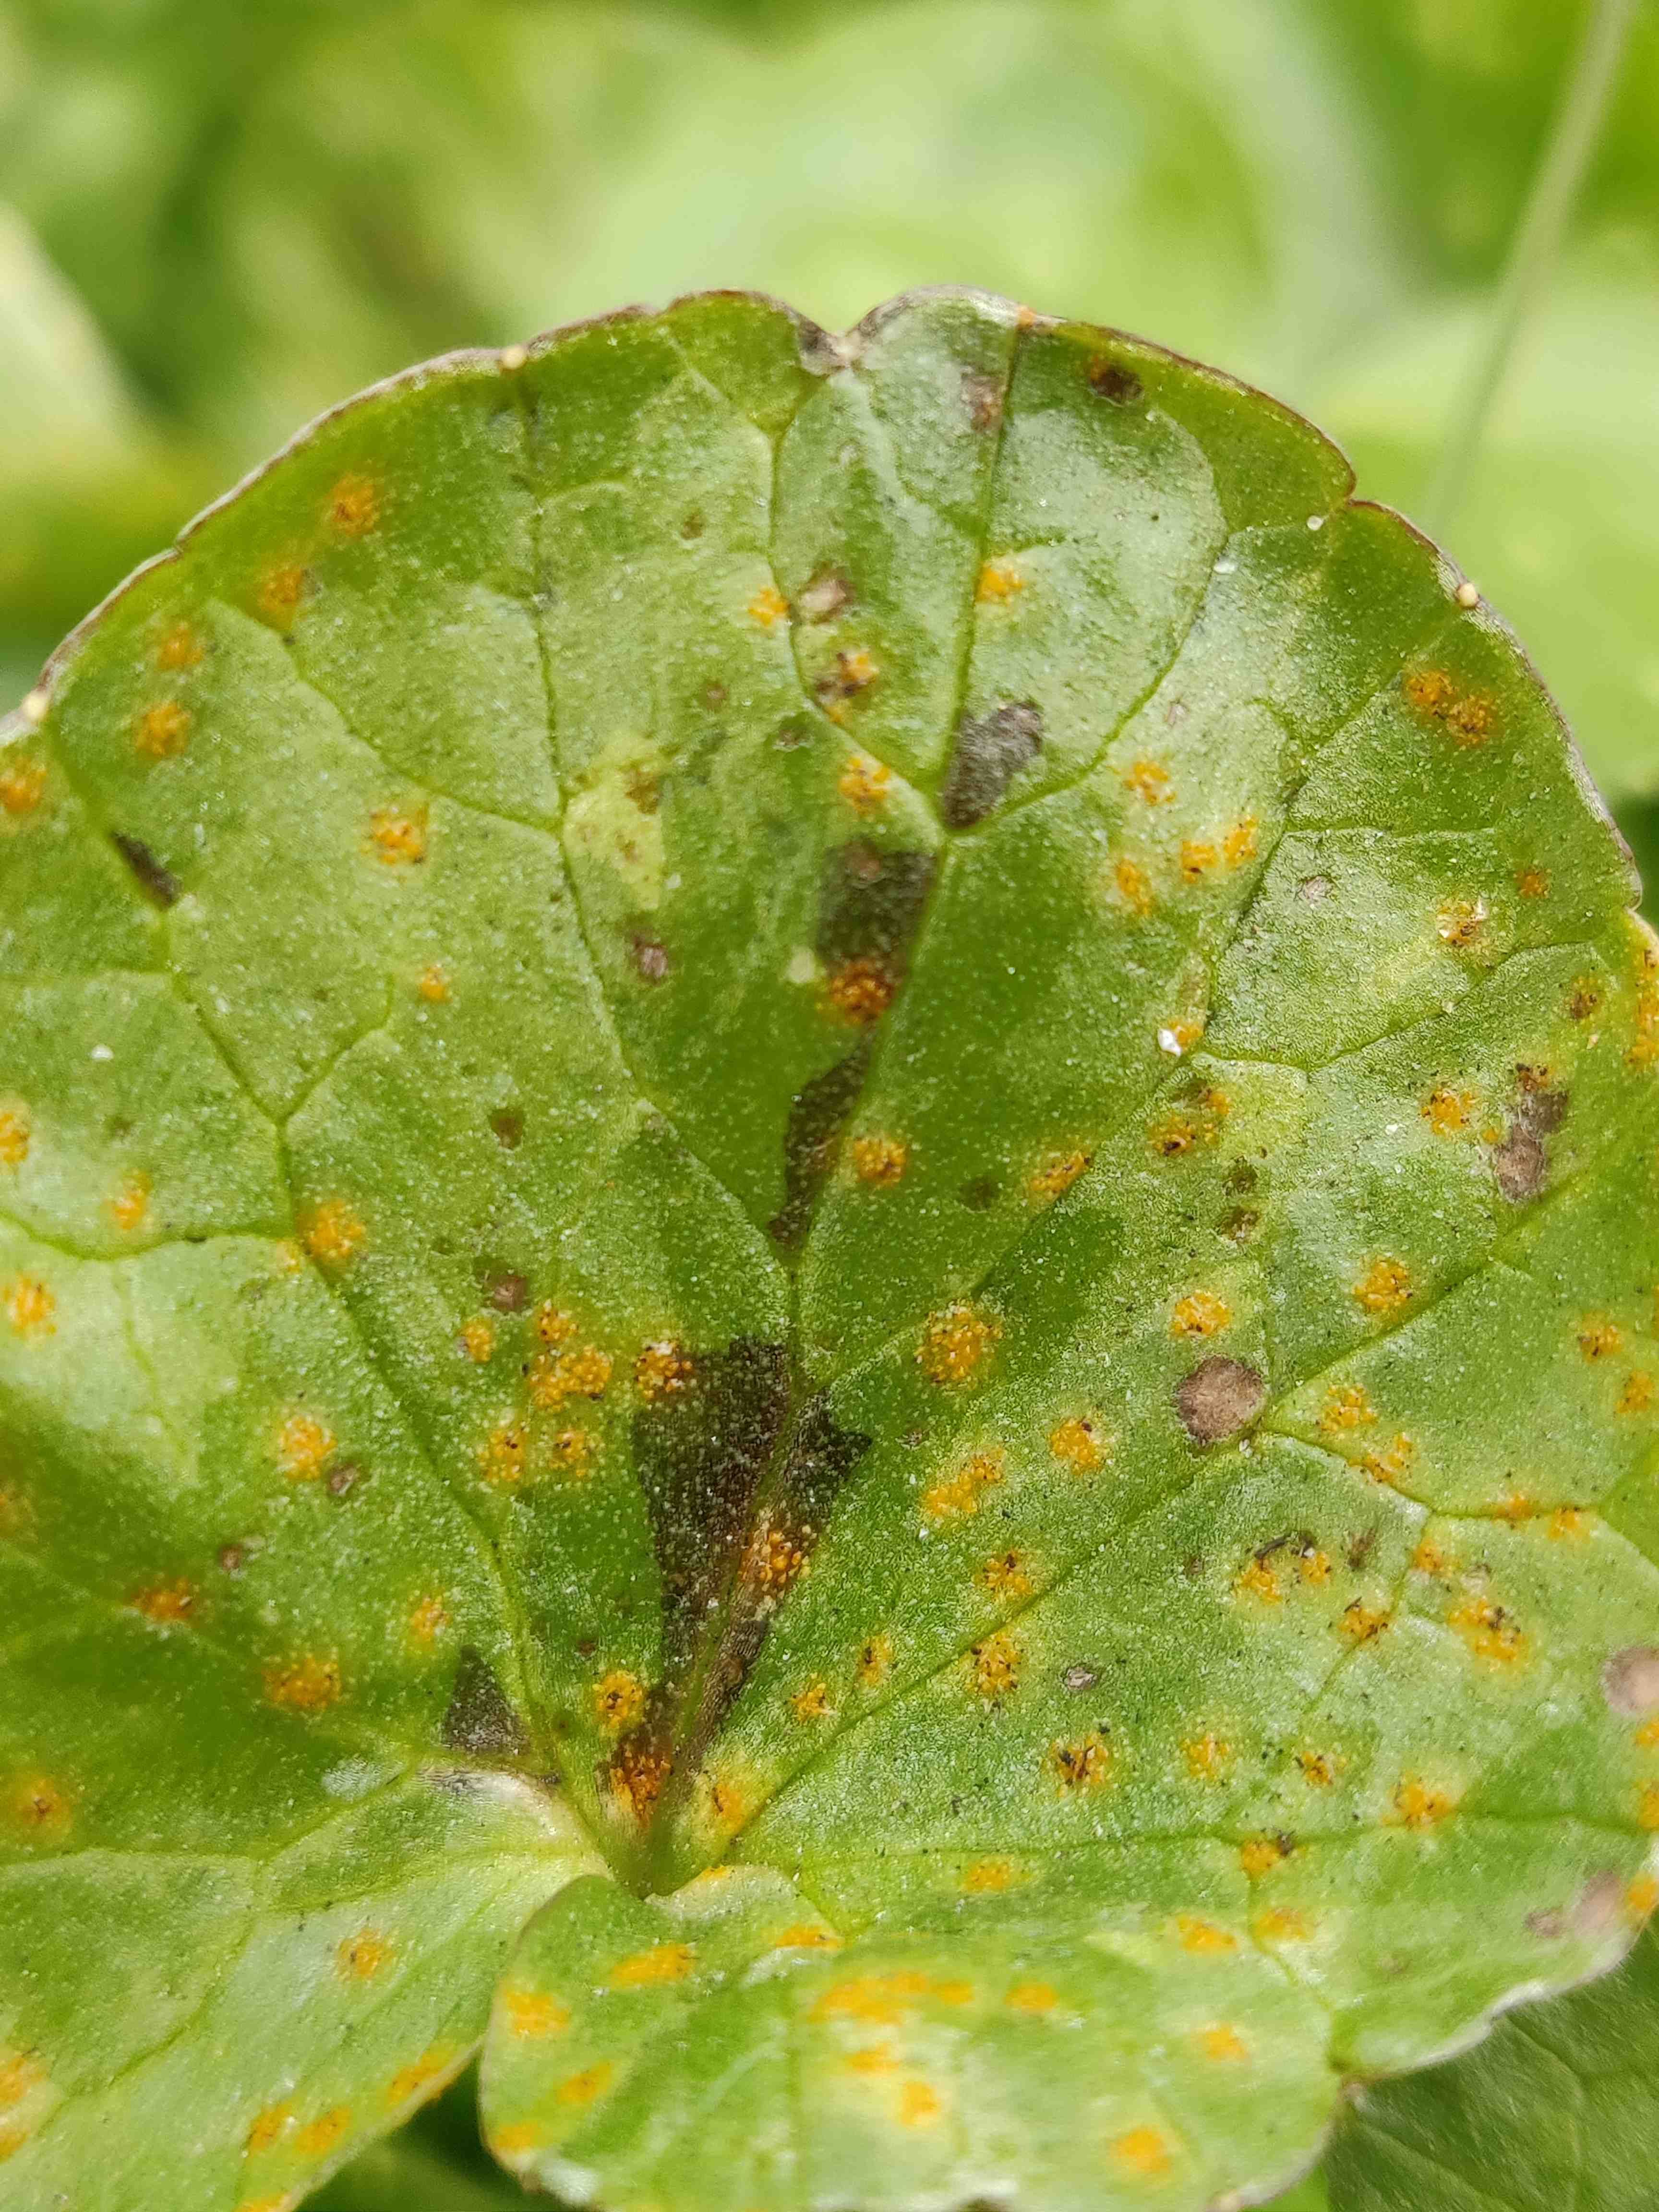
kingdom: Fungi
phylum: Basidiomycota
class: Pucciniomycetes
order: Pucciniales
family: Pucciniaceae
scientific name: Pucciniaceae
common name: rustsvampfamilien
